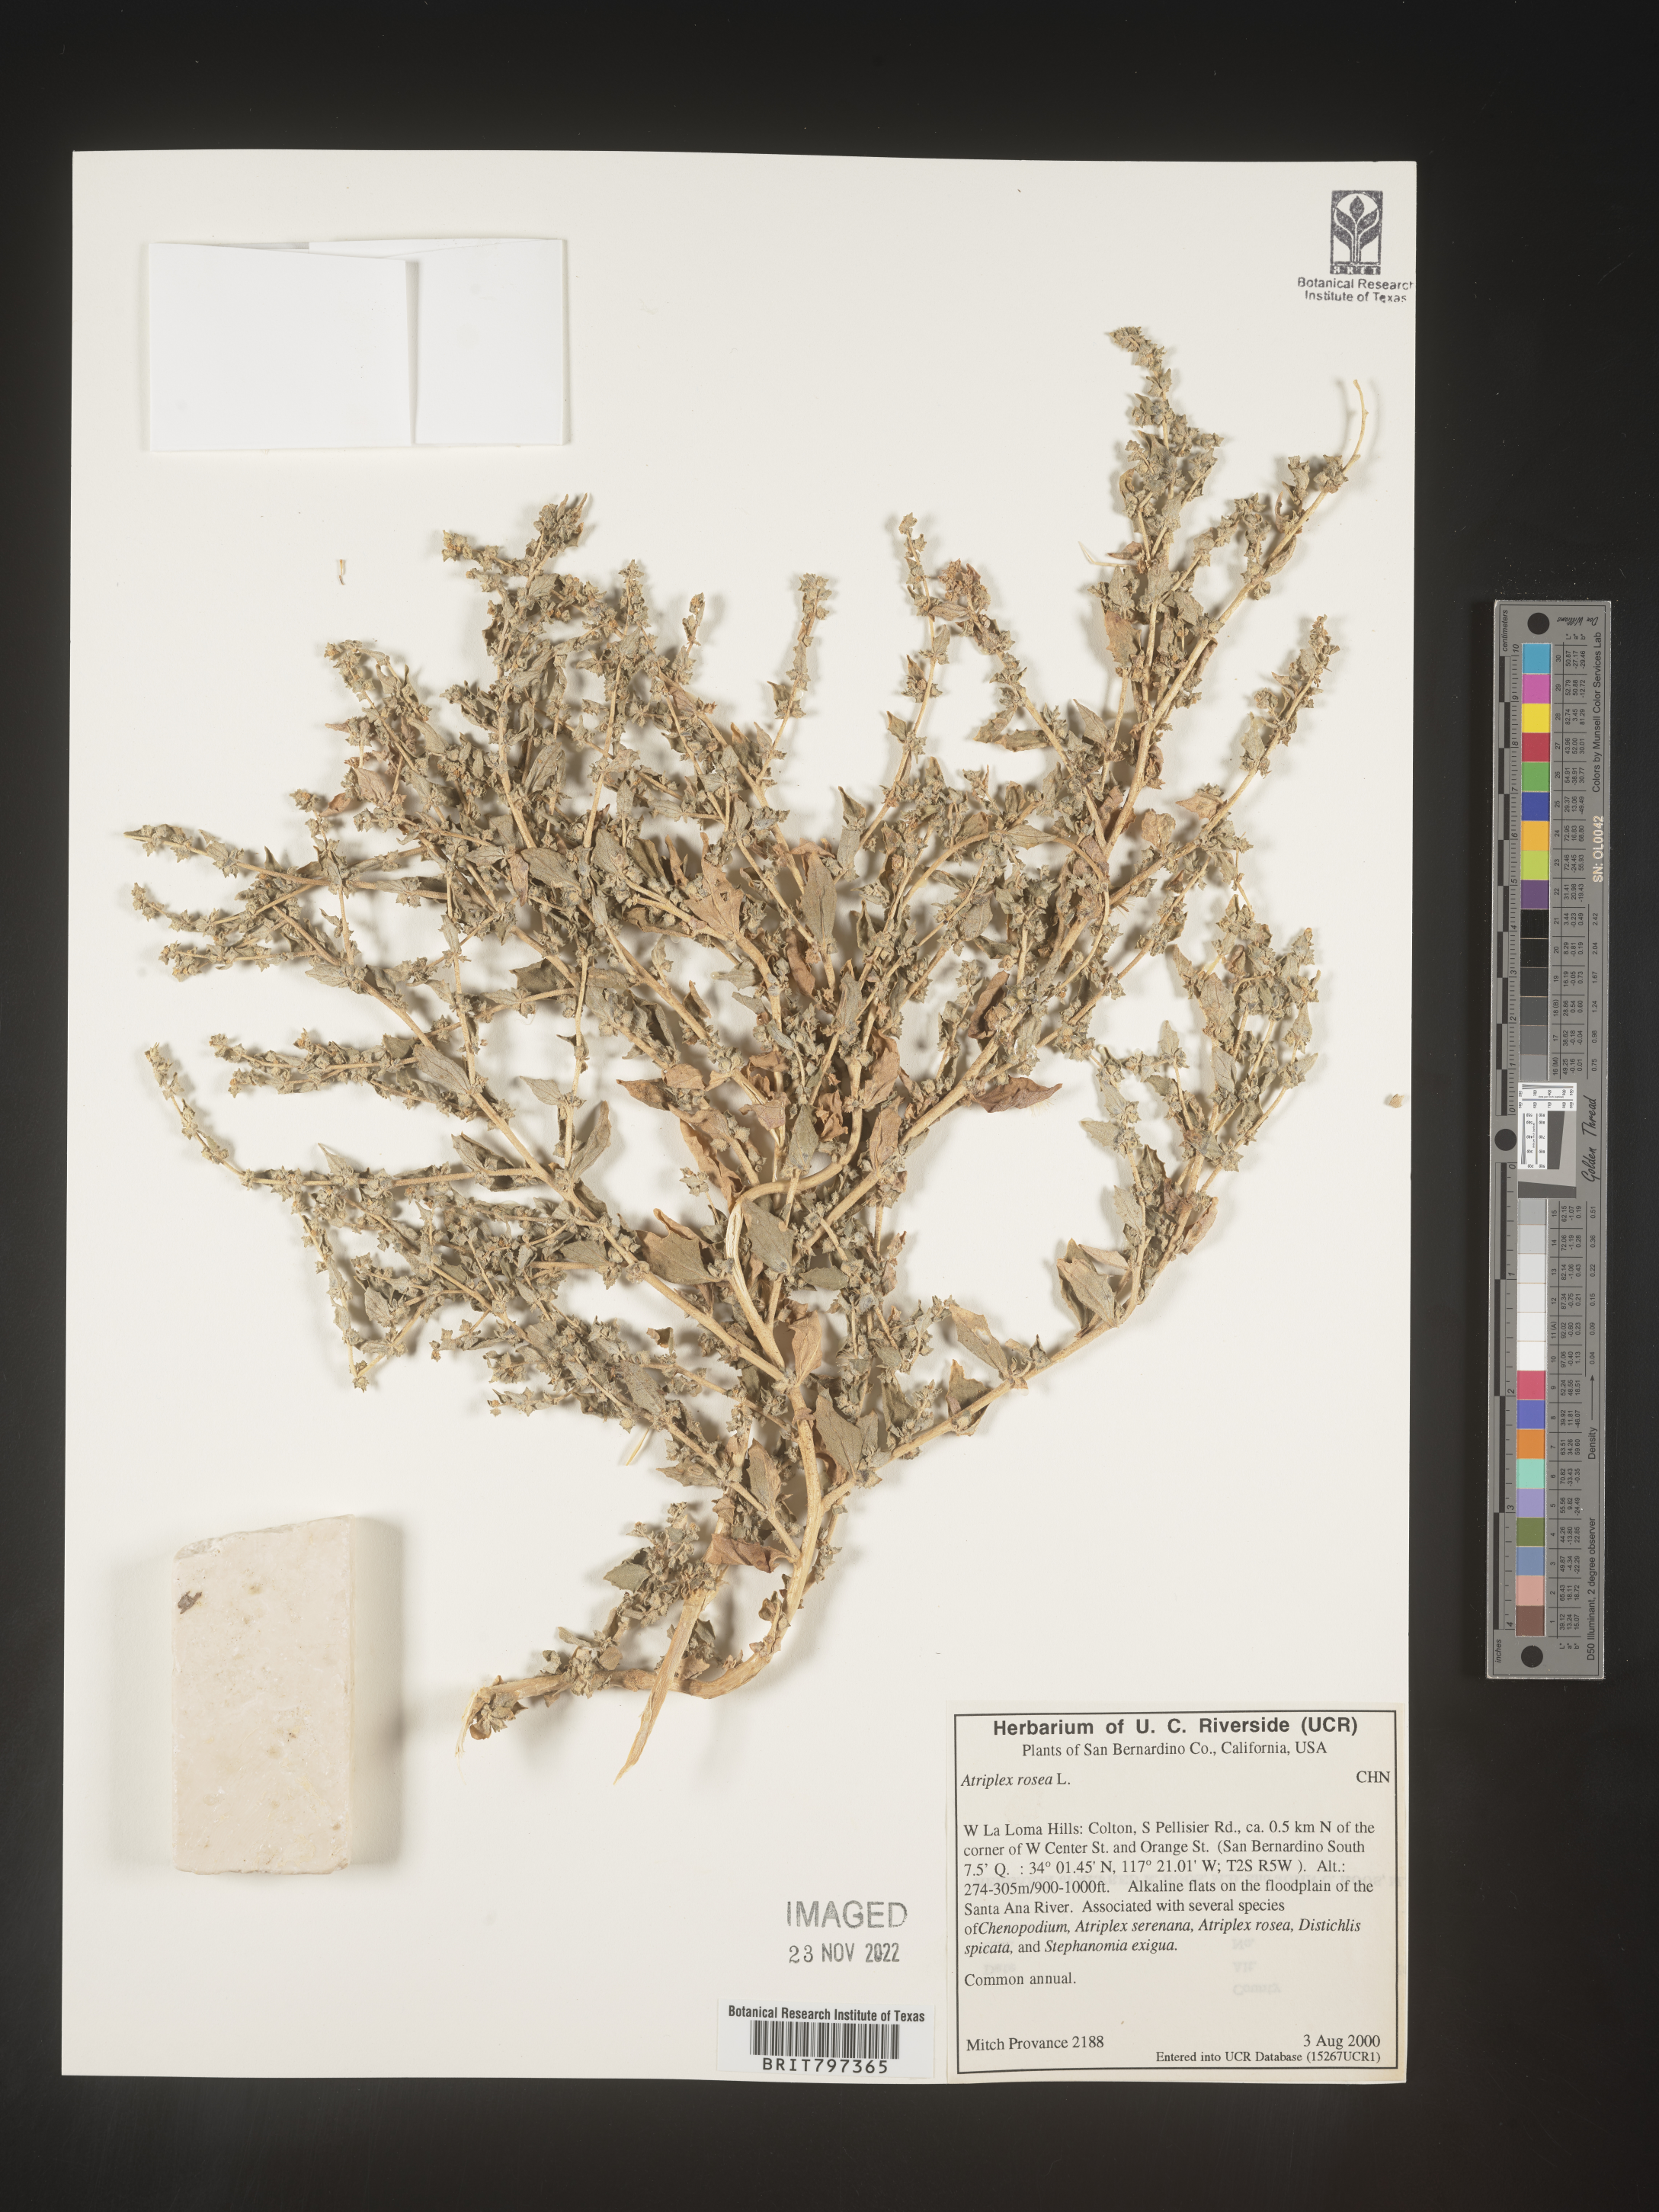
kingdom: Plantae
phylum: Tracheophyta
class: Magnoliopsida
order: Caryophyllales
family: Amaranthaceae
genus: Atriplex
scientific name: Atriplex rosea
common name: Tumbling saltweed
